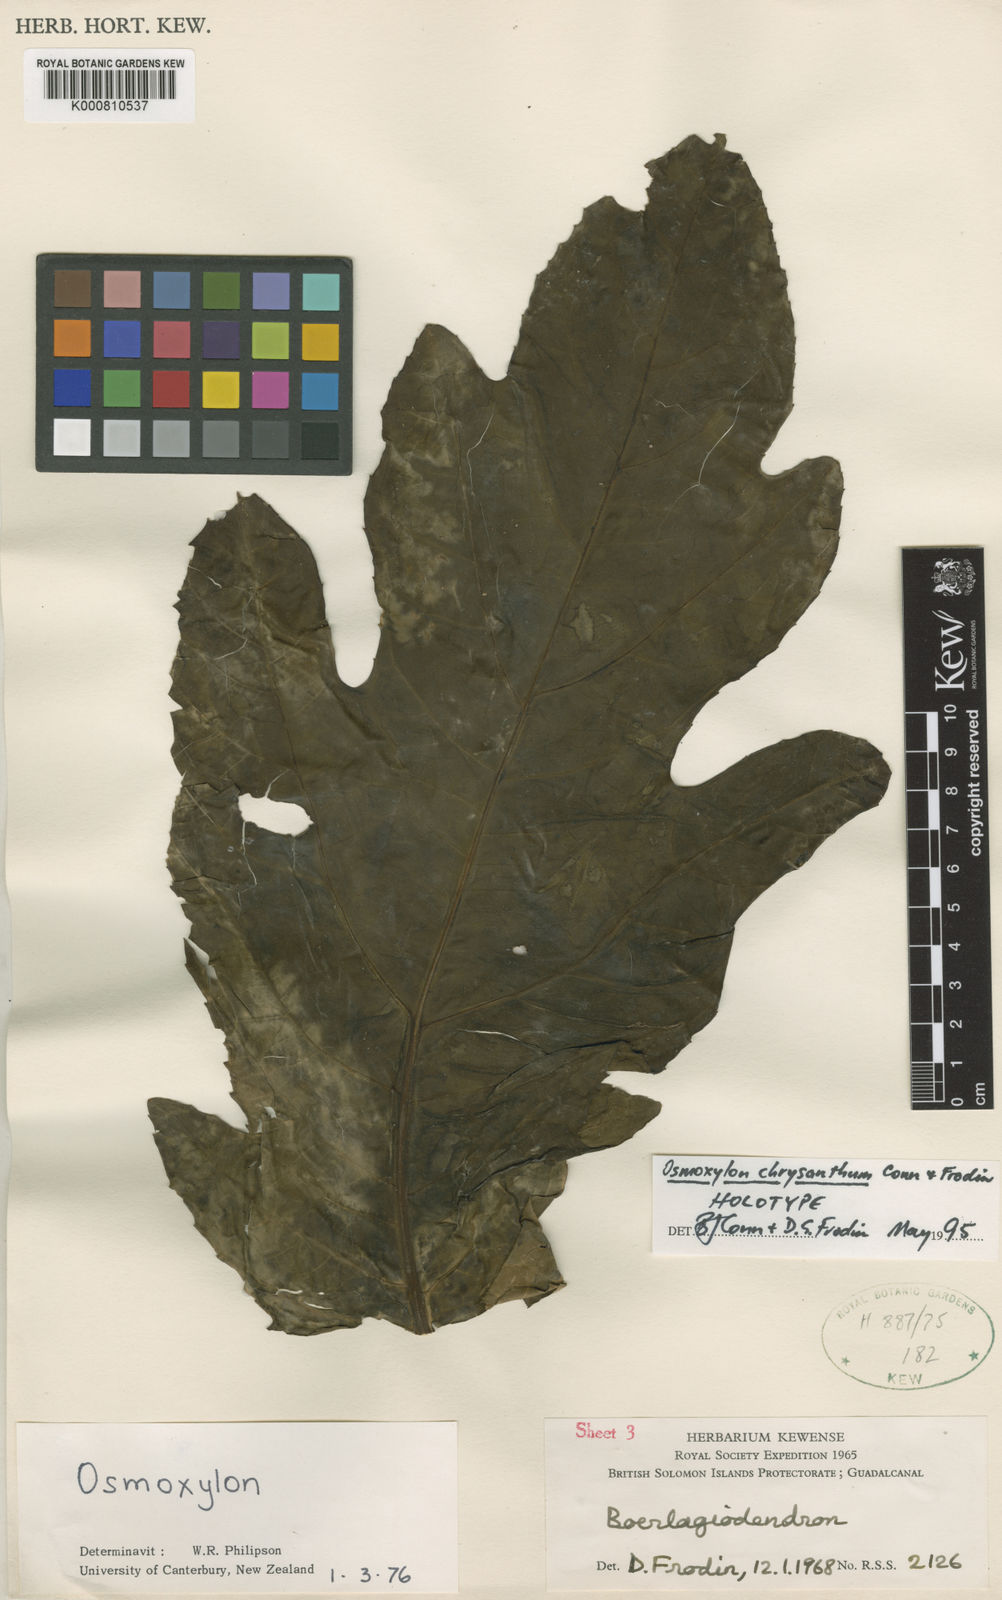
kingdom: Plantae
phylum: Tracheophyta
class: Magnoliopsida
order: Apiales
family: Araliaceae
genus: Osmoxylon
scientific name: Osmoxylon chrysanthum
